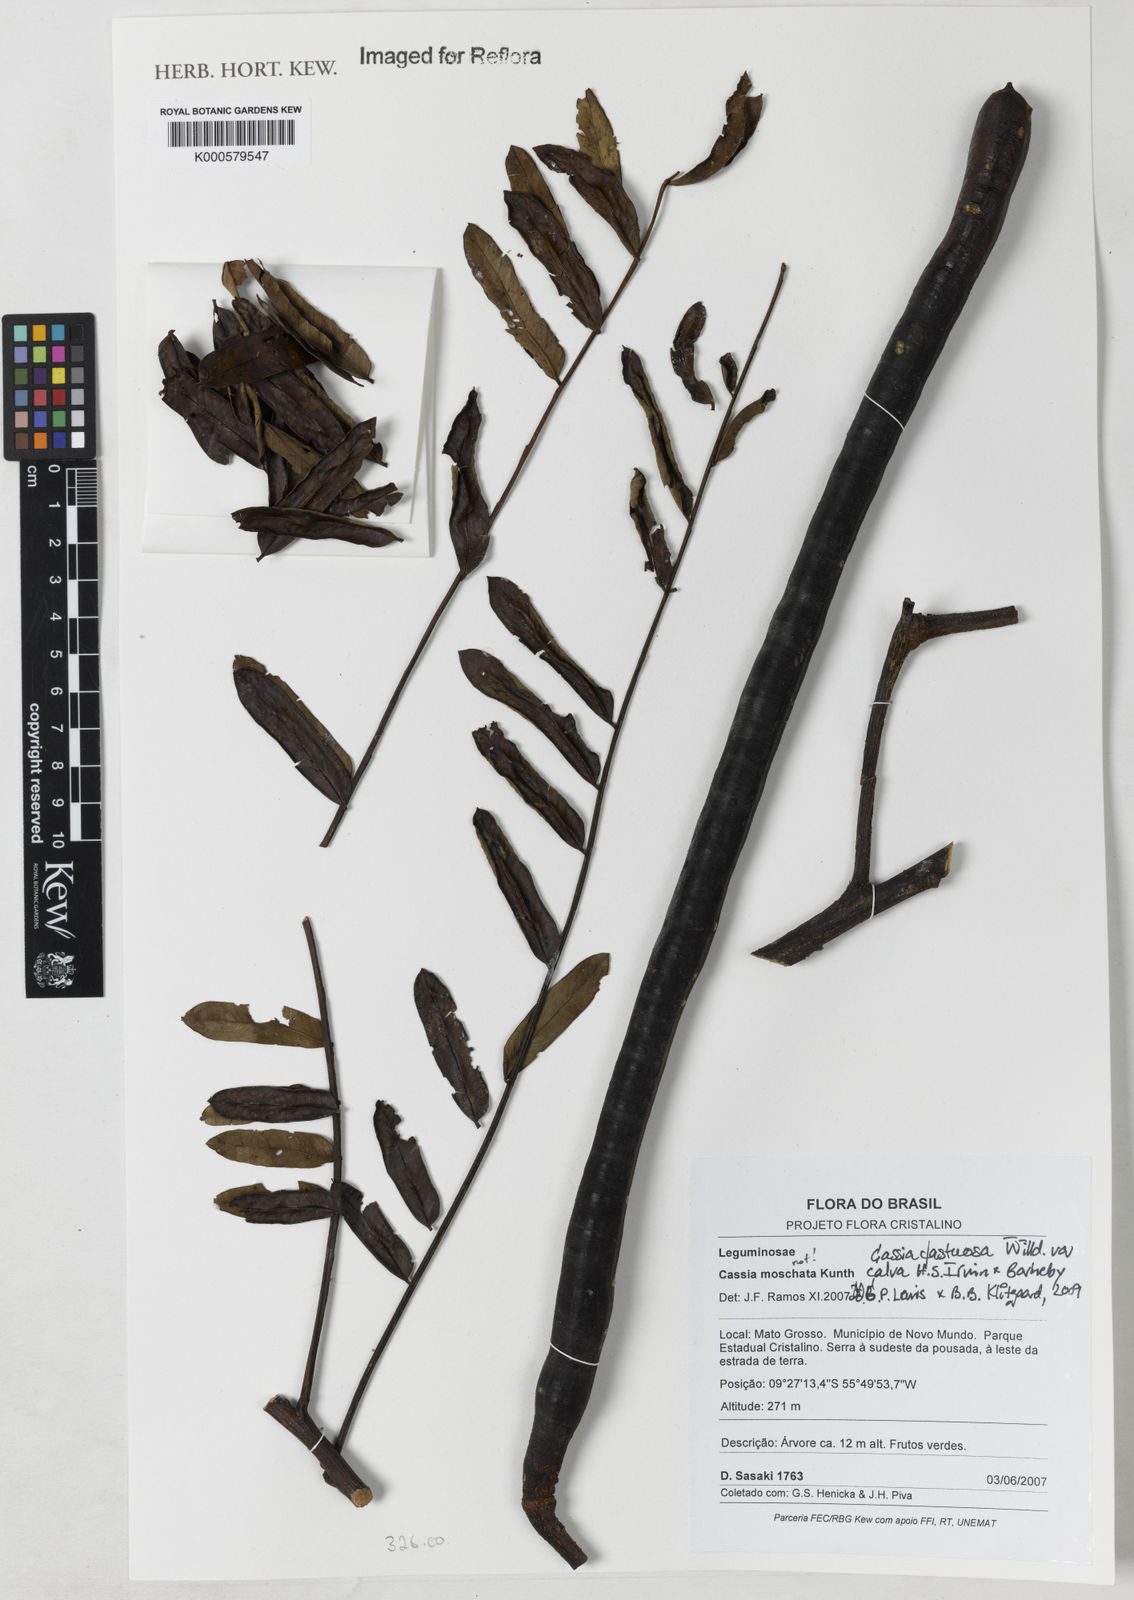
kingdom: Plantae
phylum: Tracheophyta
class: Magnoliopsida
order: Fabales
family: Fabaceae
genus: Cassia
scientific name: Cassia fastuosa
